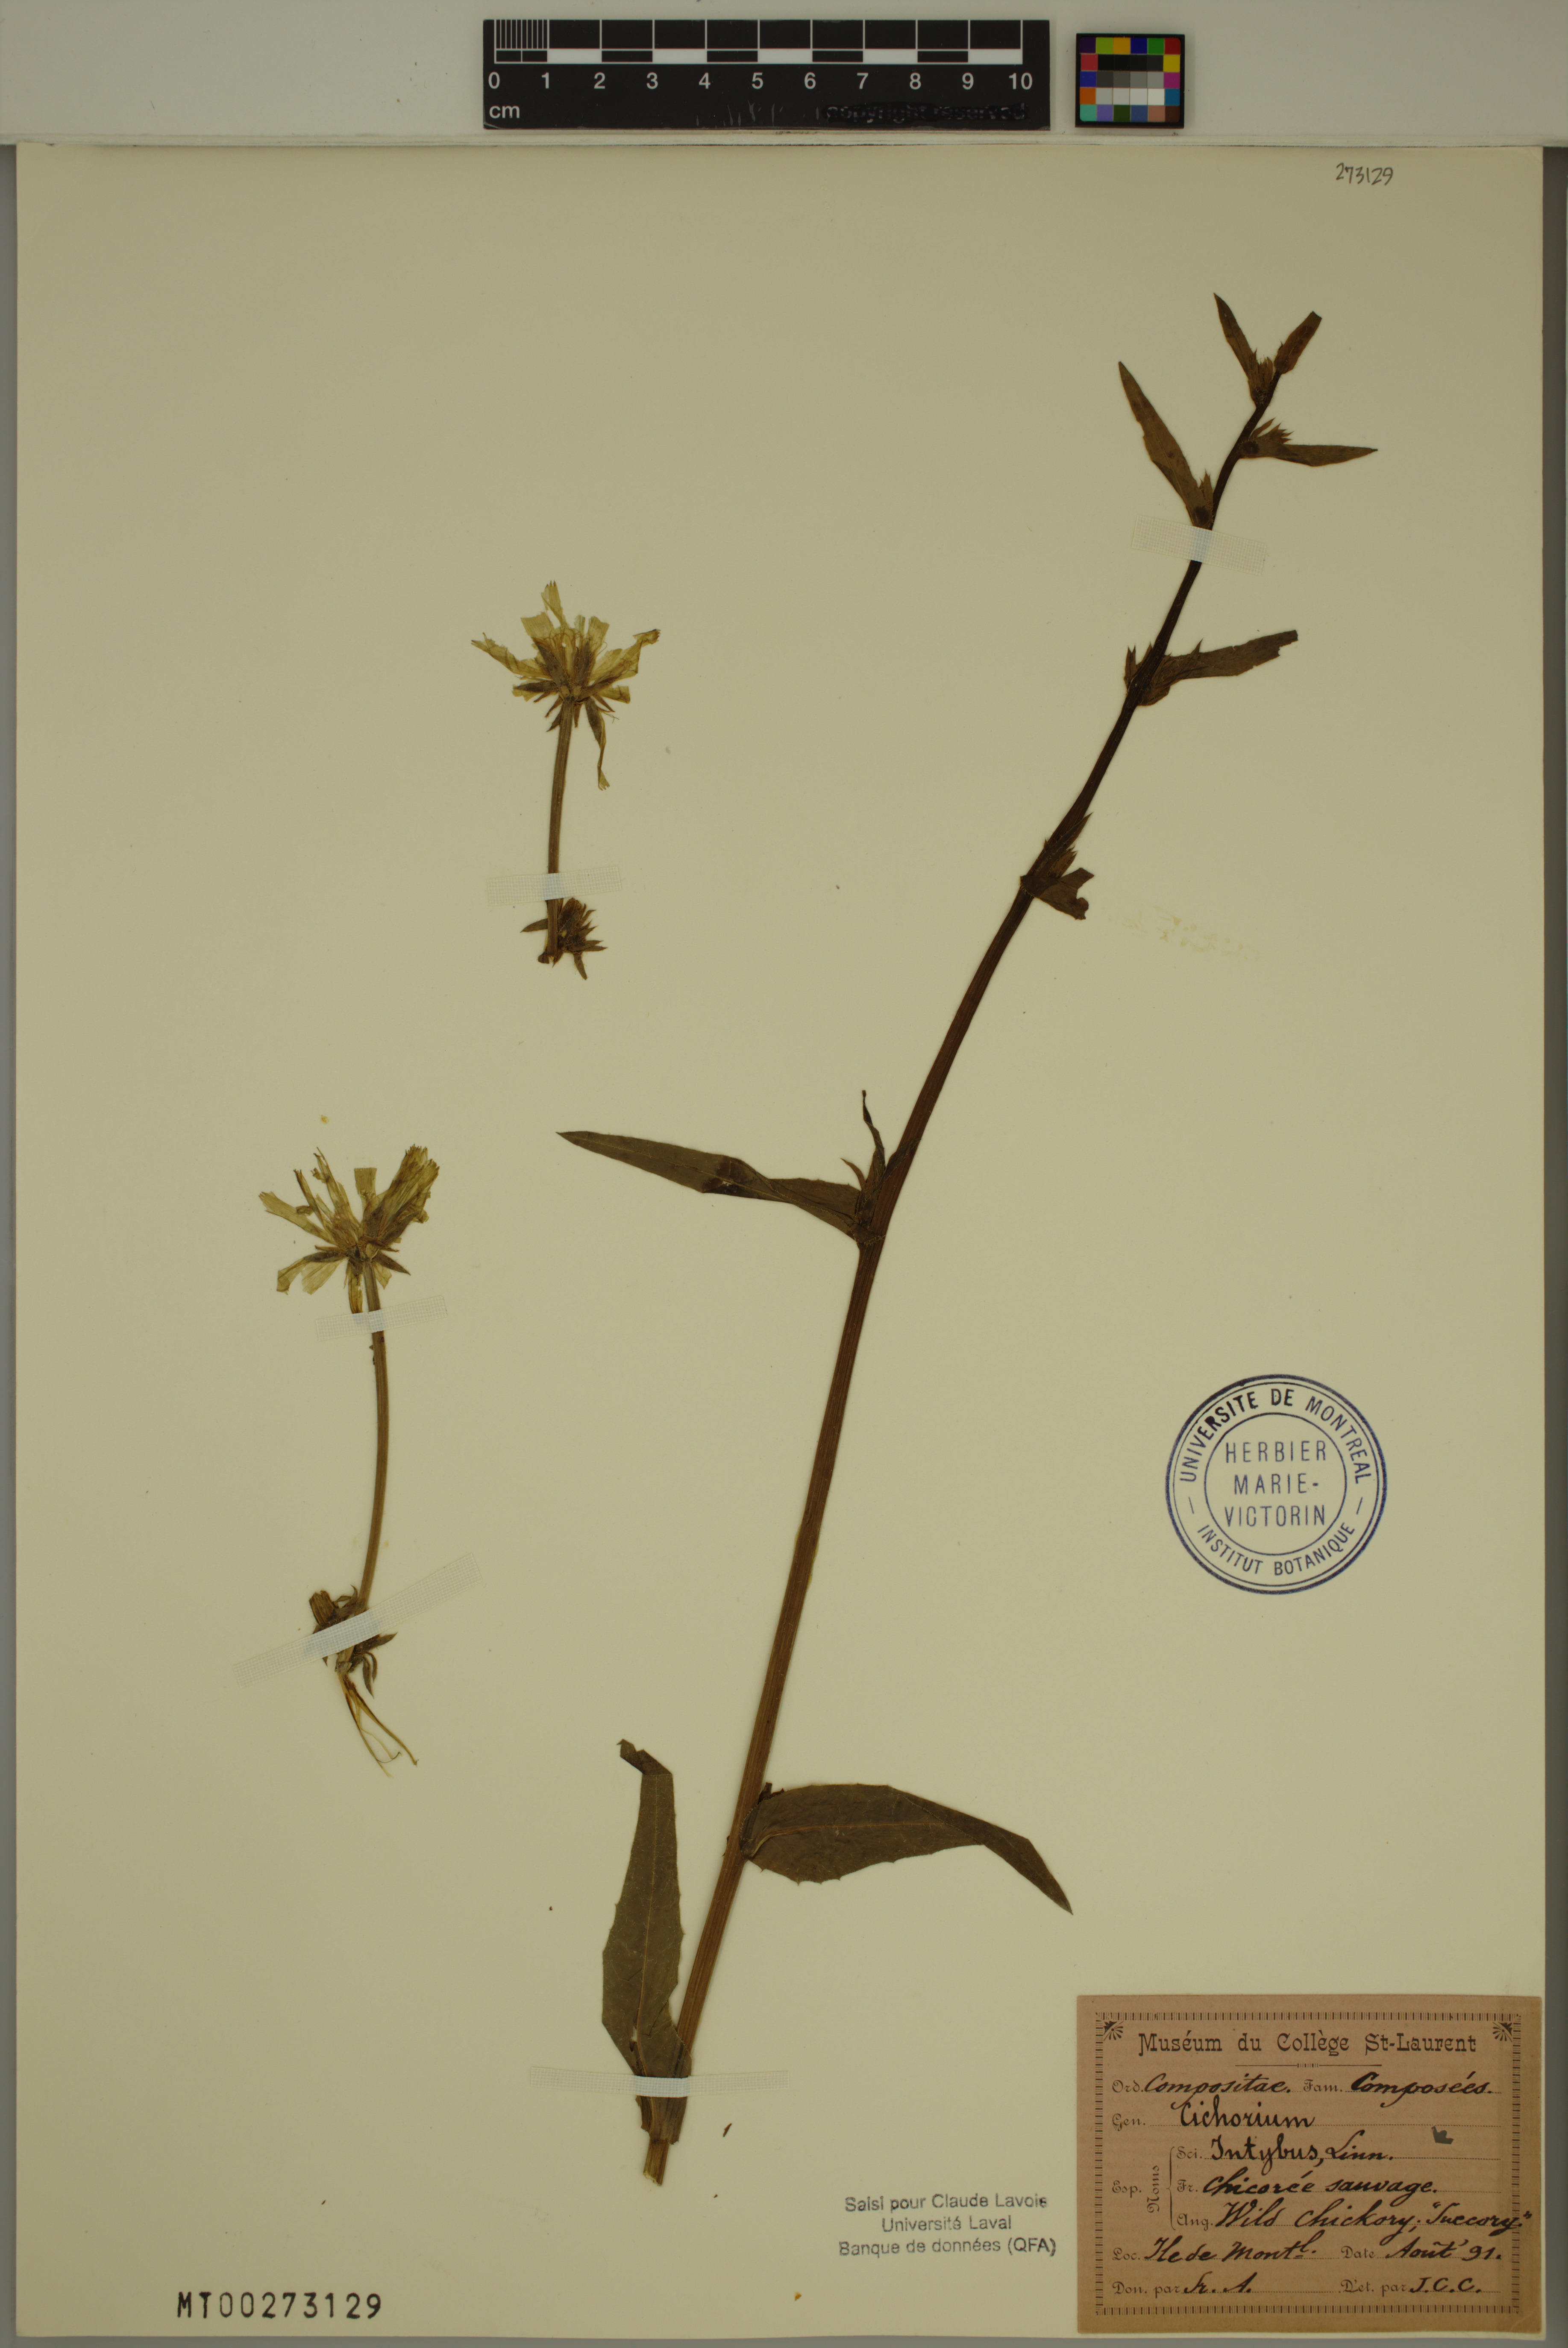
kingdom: Plantae
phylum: Tracheophyta
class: Magnoliopsida
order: Asterales
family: Asteraceae
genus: Cichorium
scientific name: Cichorium intybus
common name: Chicory
